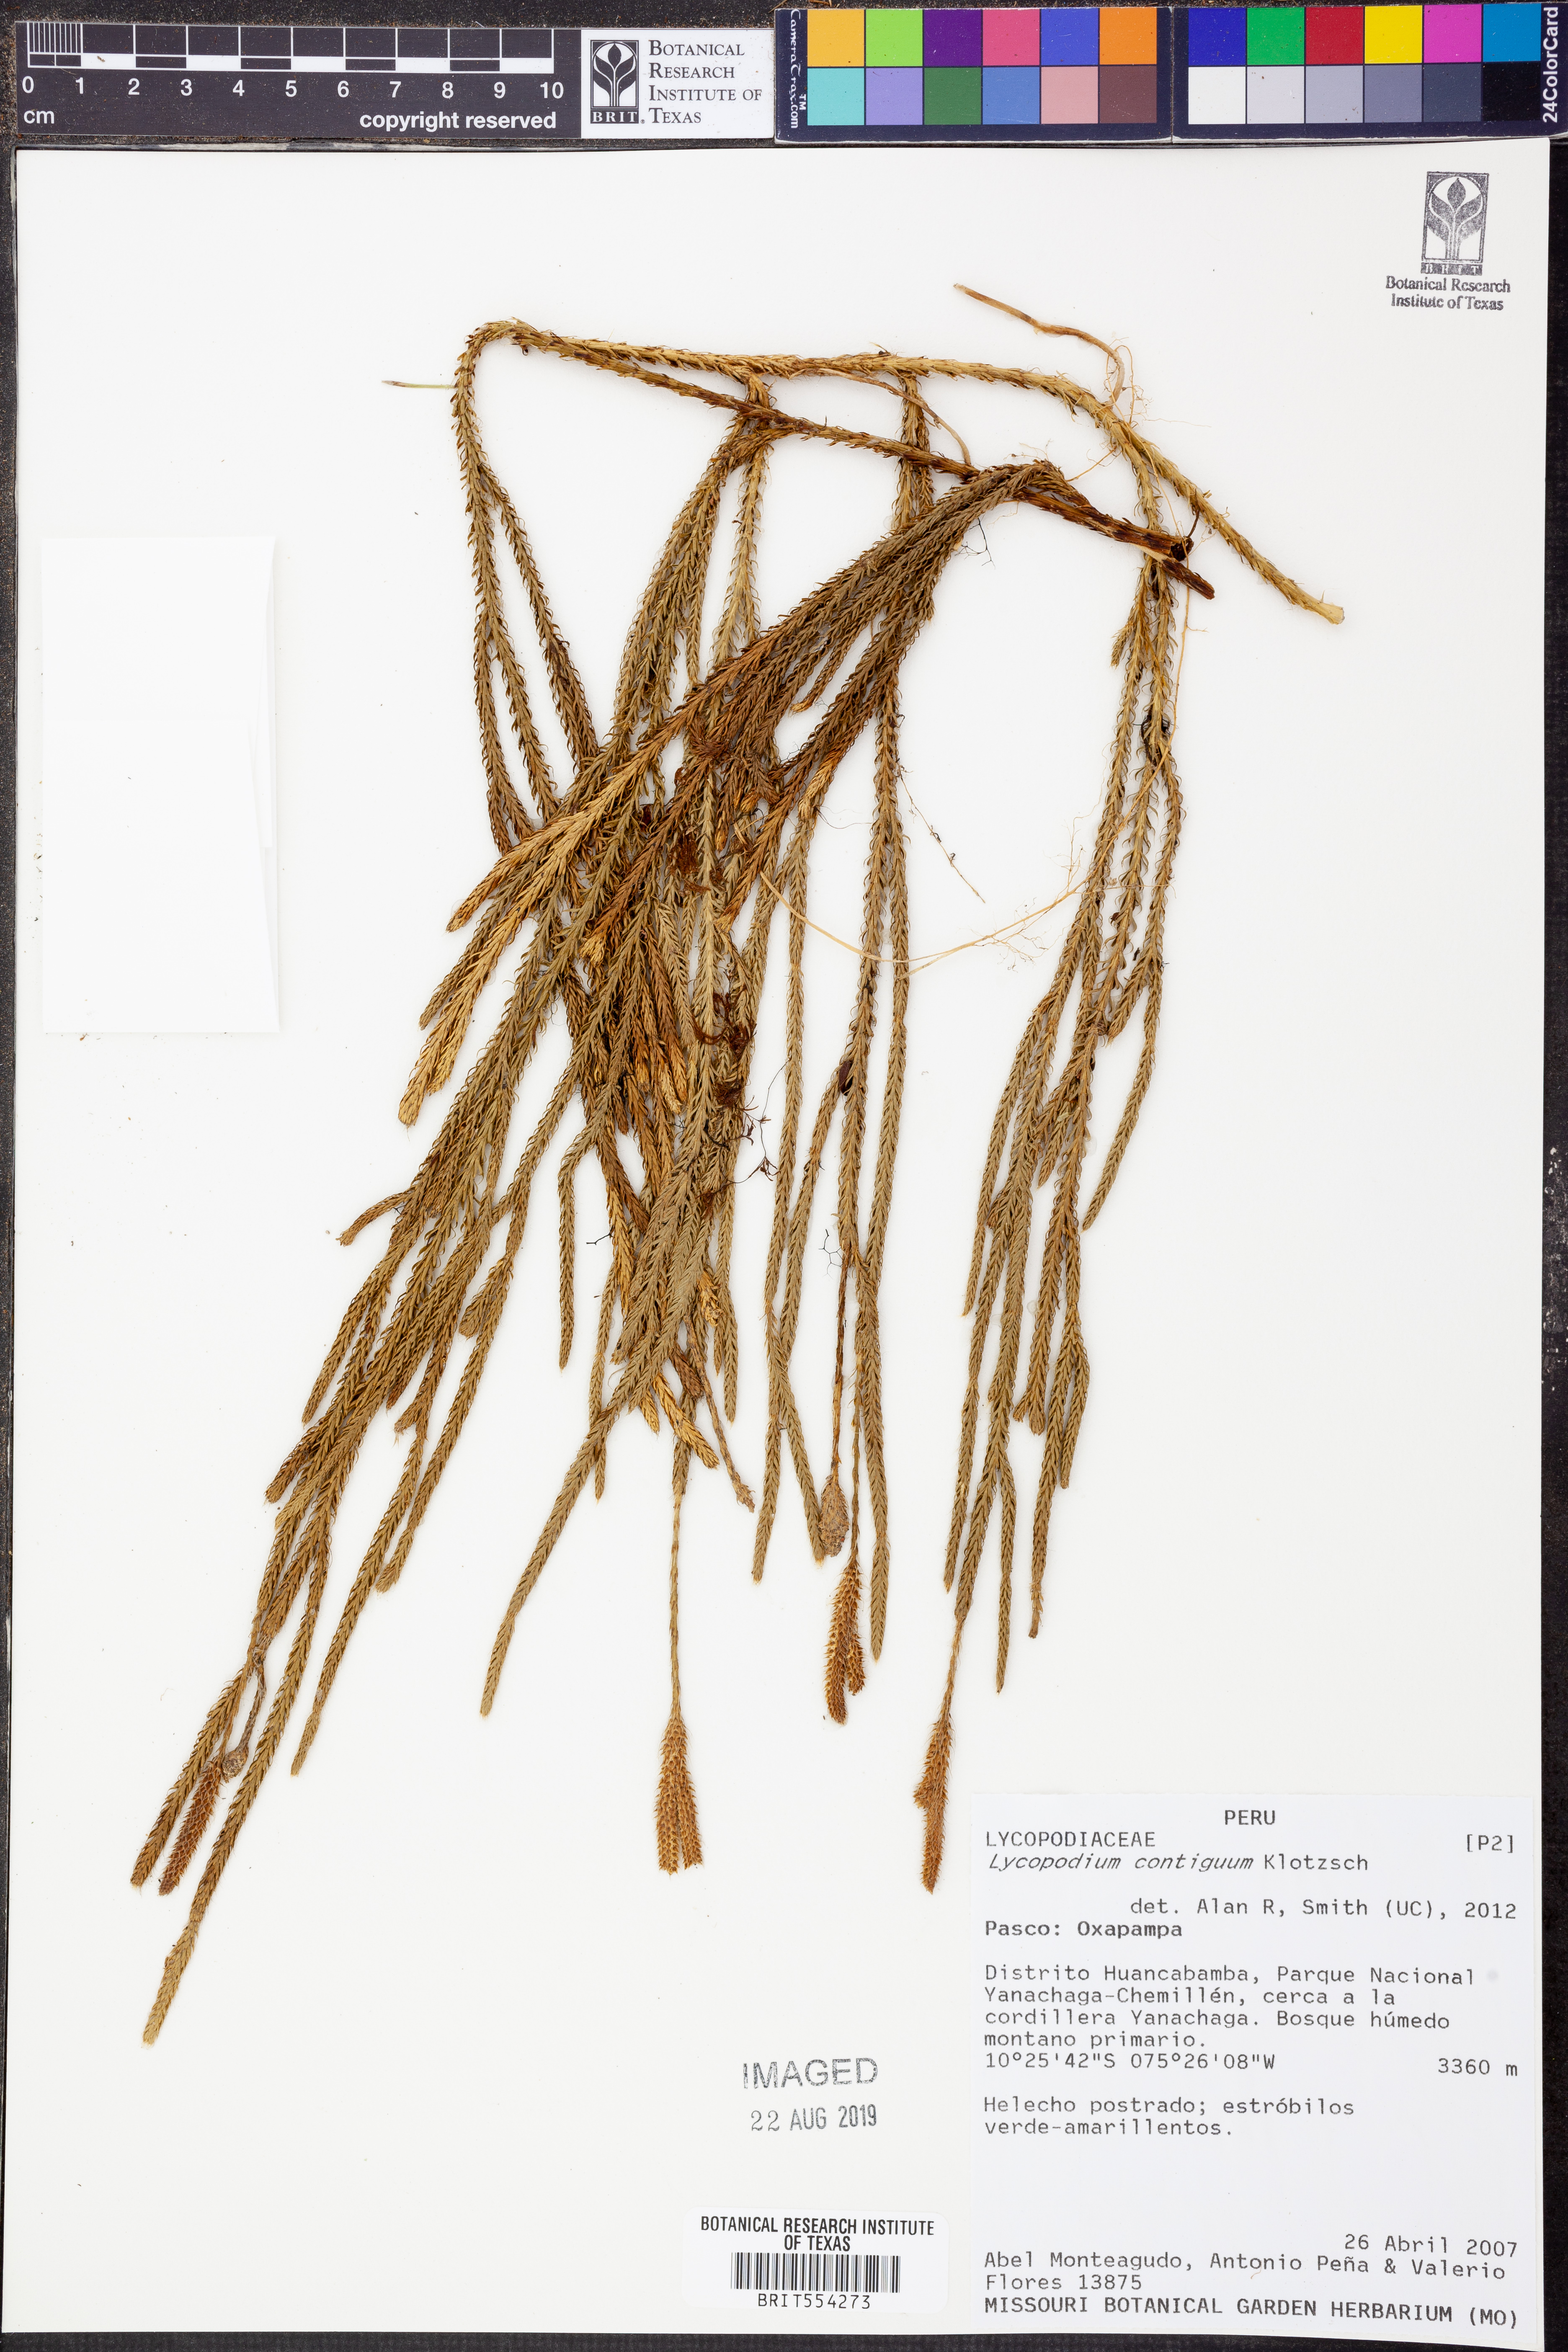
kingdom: Plantae
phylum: Tracheophyta
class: Lycopodiopsida
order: Lycopodiales
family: Lycopodiaceae
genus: Lycopodium
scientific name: Lycopodium clavatum
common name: Stag's-horn clubmoss
